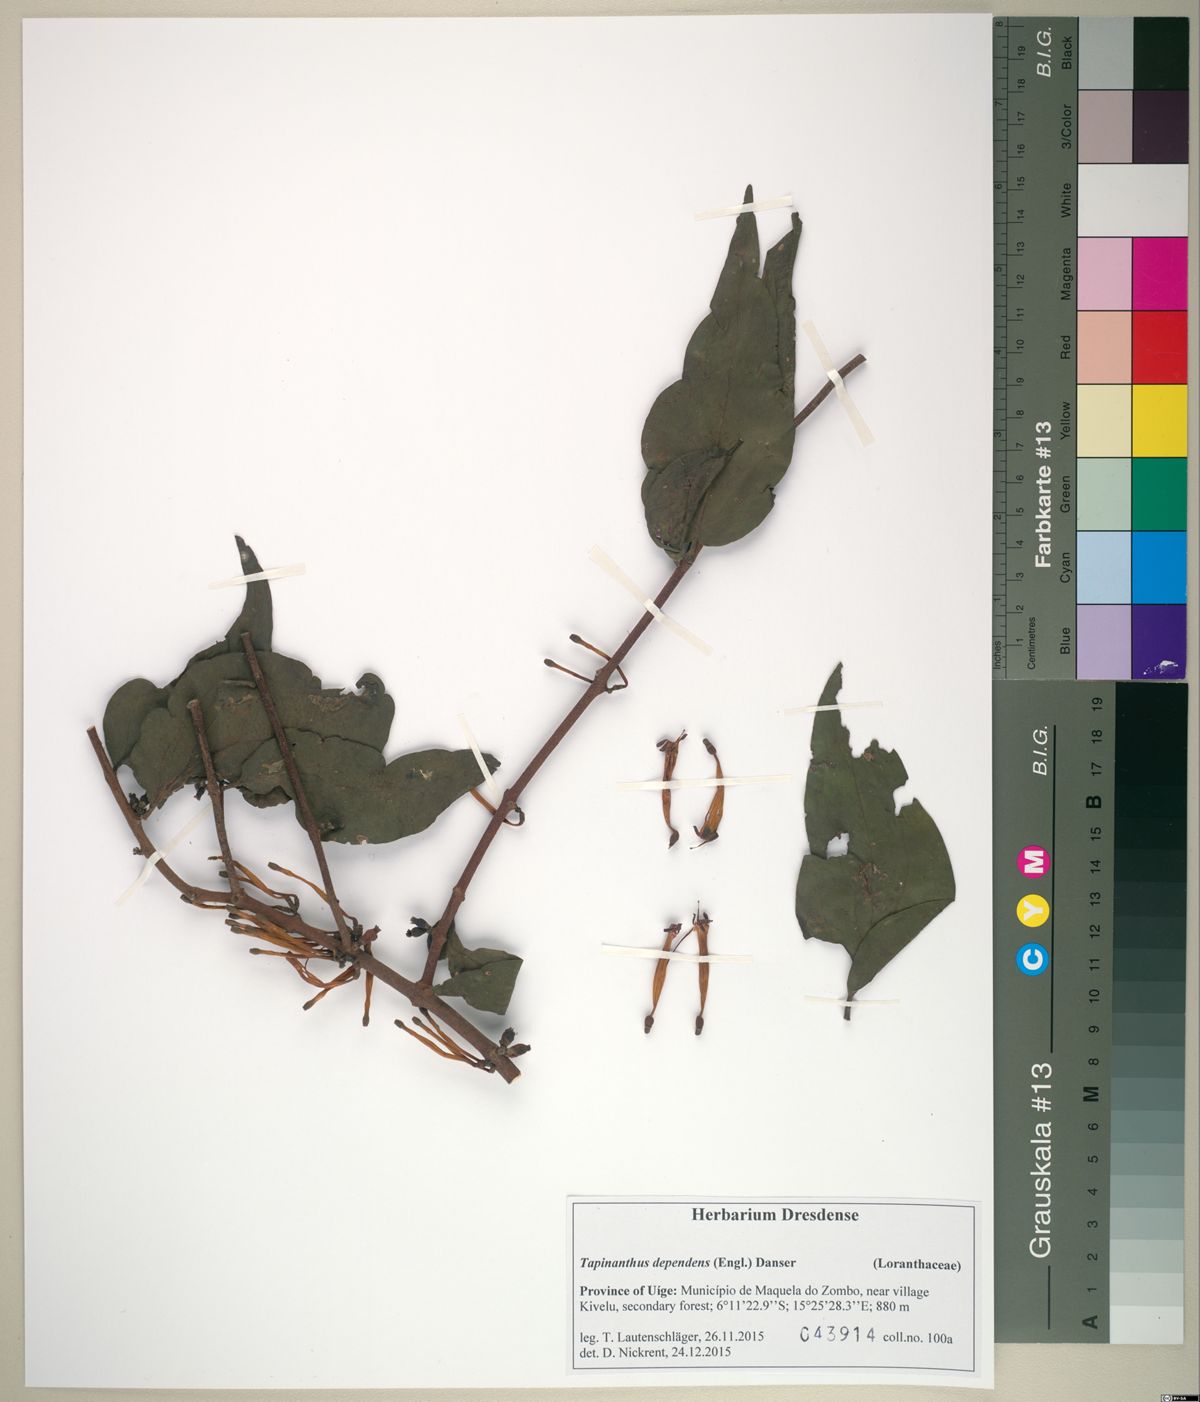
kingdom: Plantae
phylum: Tracheophyta
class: Magnoliopsida
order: Santalales
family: Loranthaceae
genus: Tapinanthus
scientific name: Tapinanthus dependens
